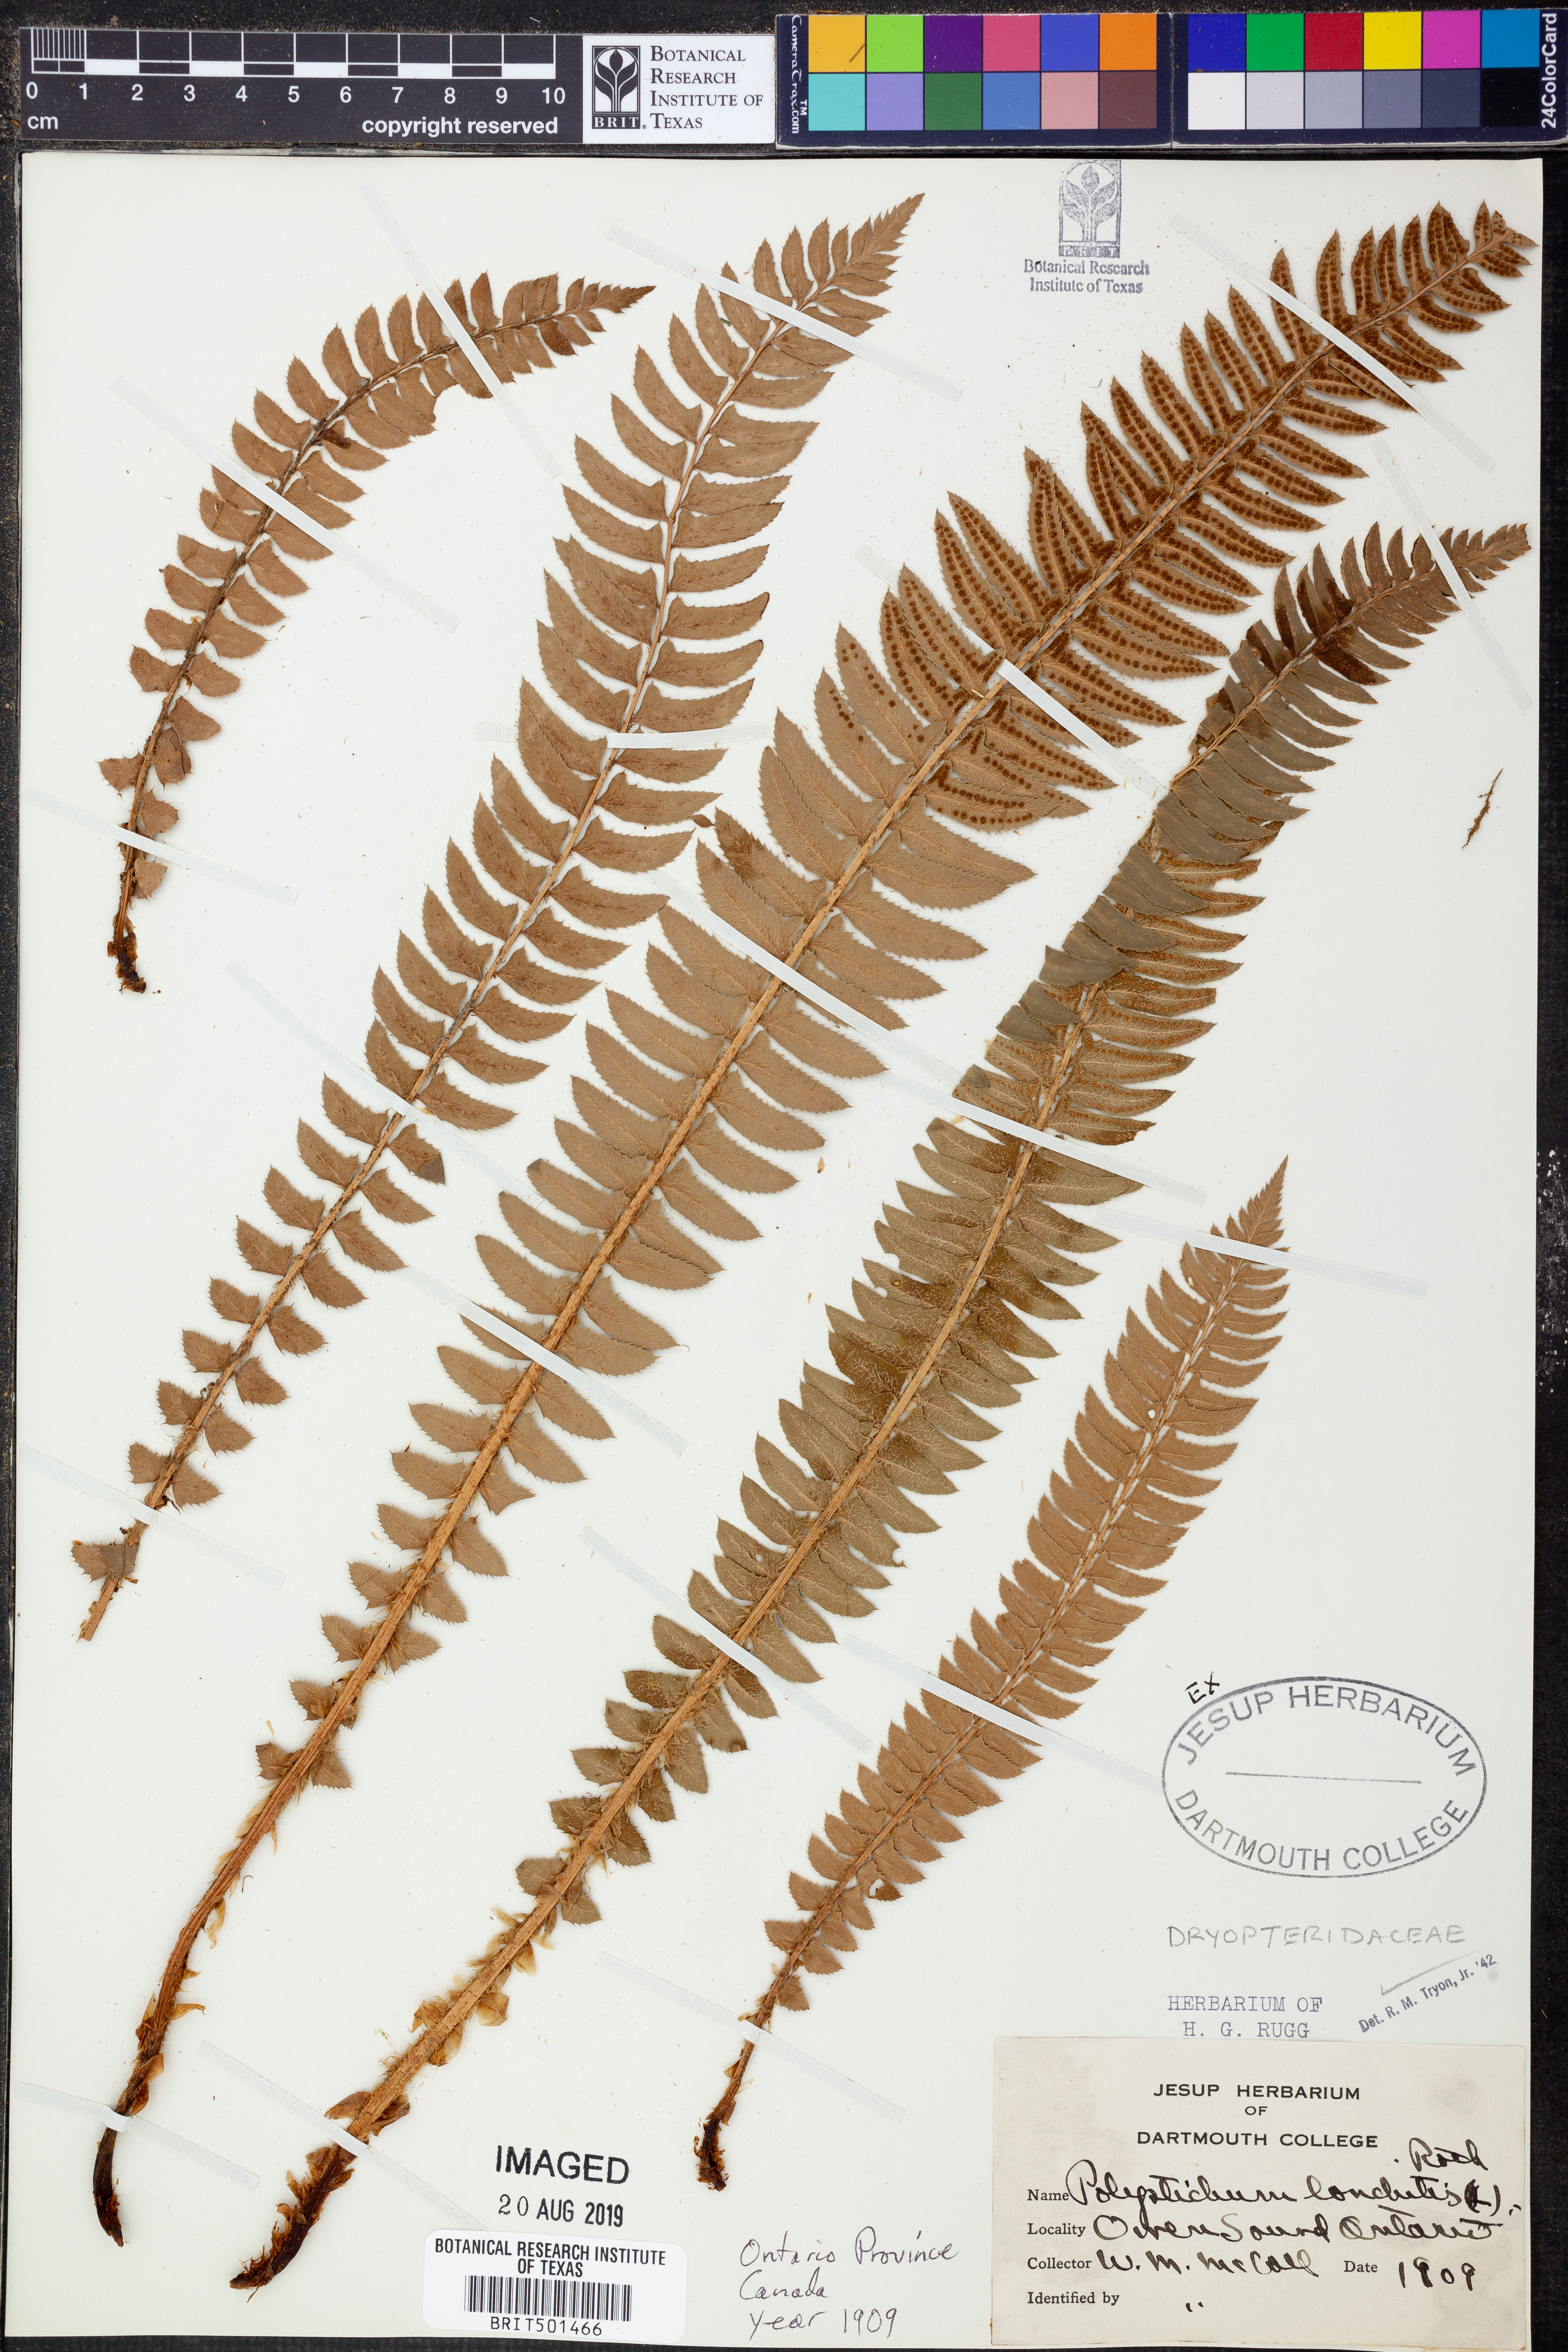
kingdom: Plantae
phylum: Tracheophyta
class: Polypodiopsida
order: Polypodiales
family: Dryopteridaceae
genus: Polystichum
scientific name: Polystichum lonchitis
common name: Holly fern
